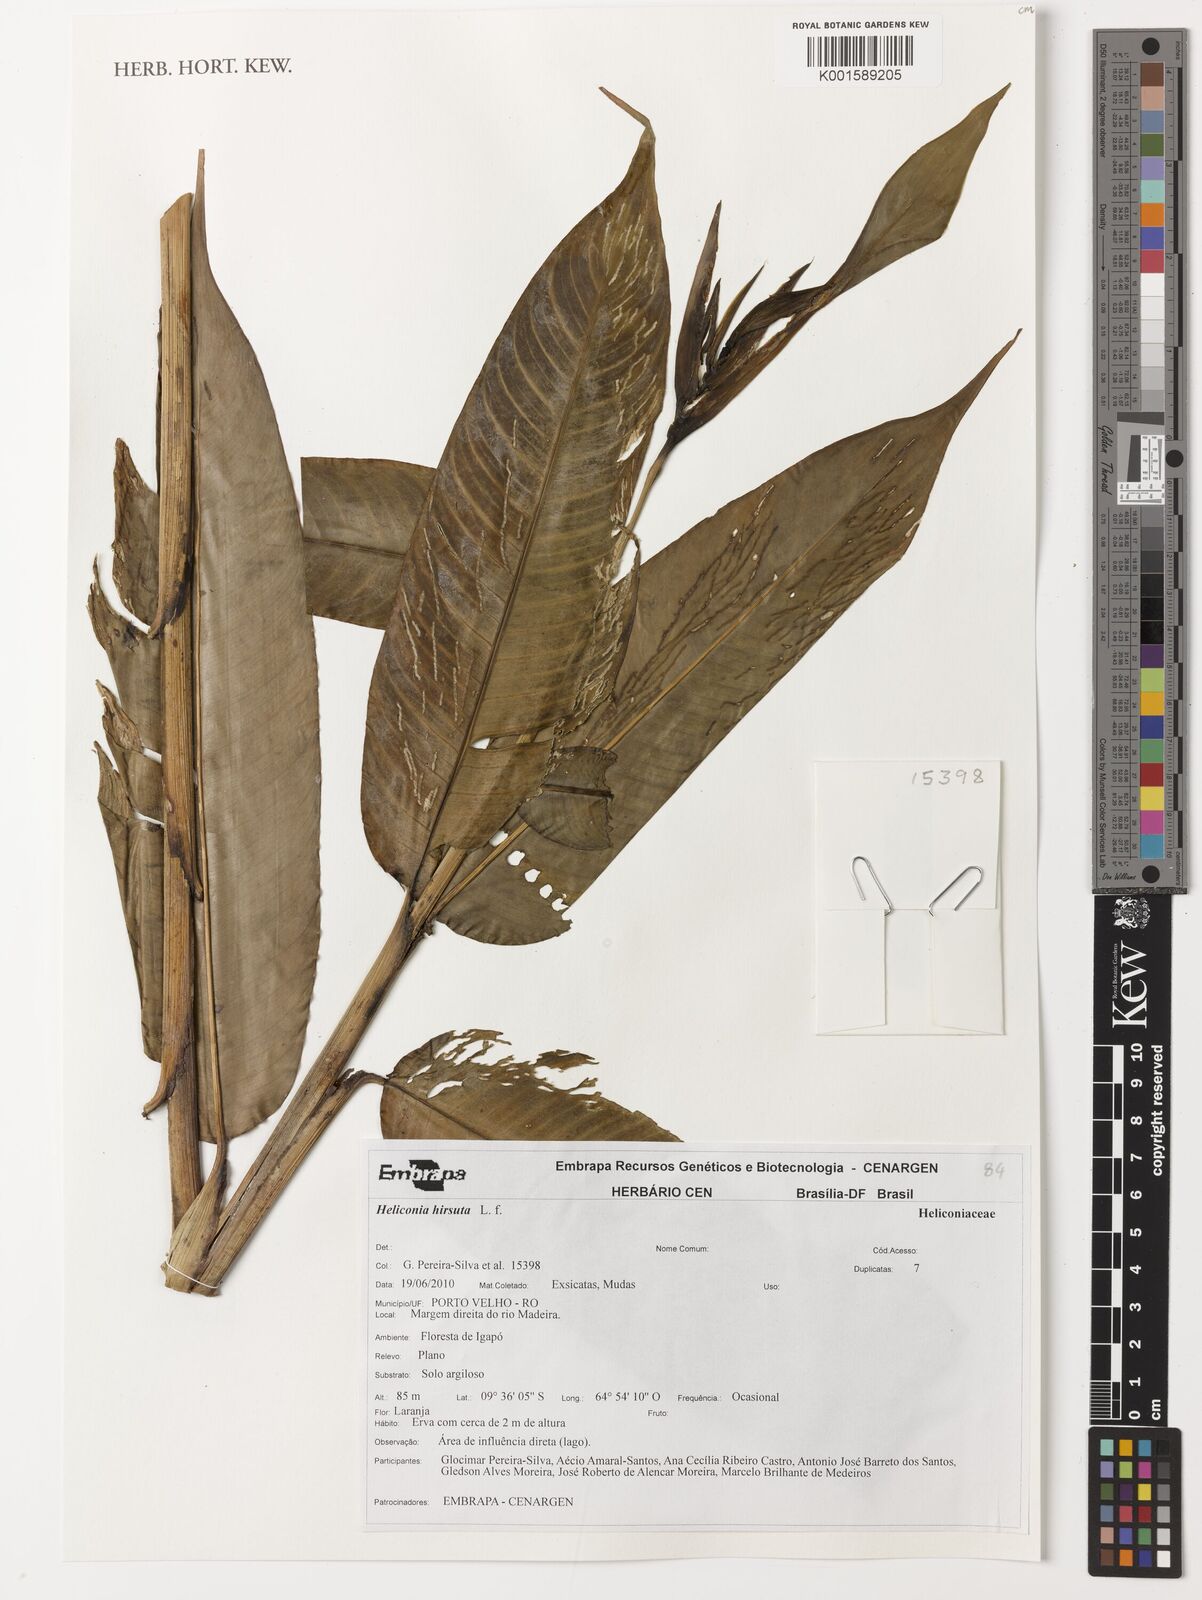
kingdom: Plantae
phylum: Tracheophyta
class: Liliopsida
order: Zingiberales
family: Heliconiaceae
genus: Heliconia
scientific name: Heliconia hirsuta
